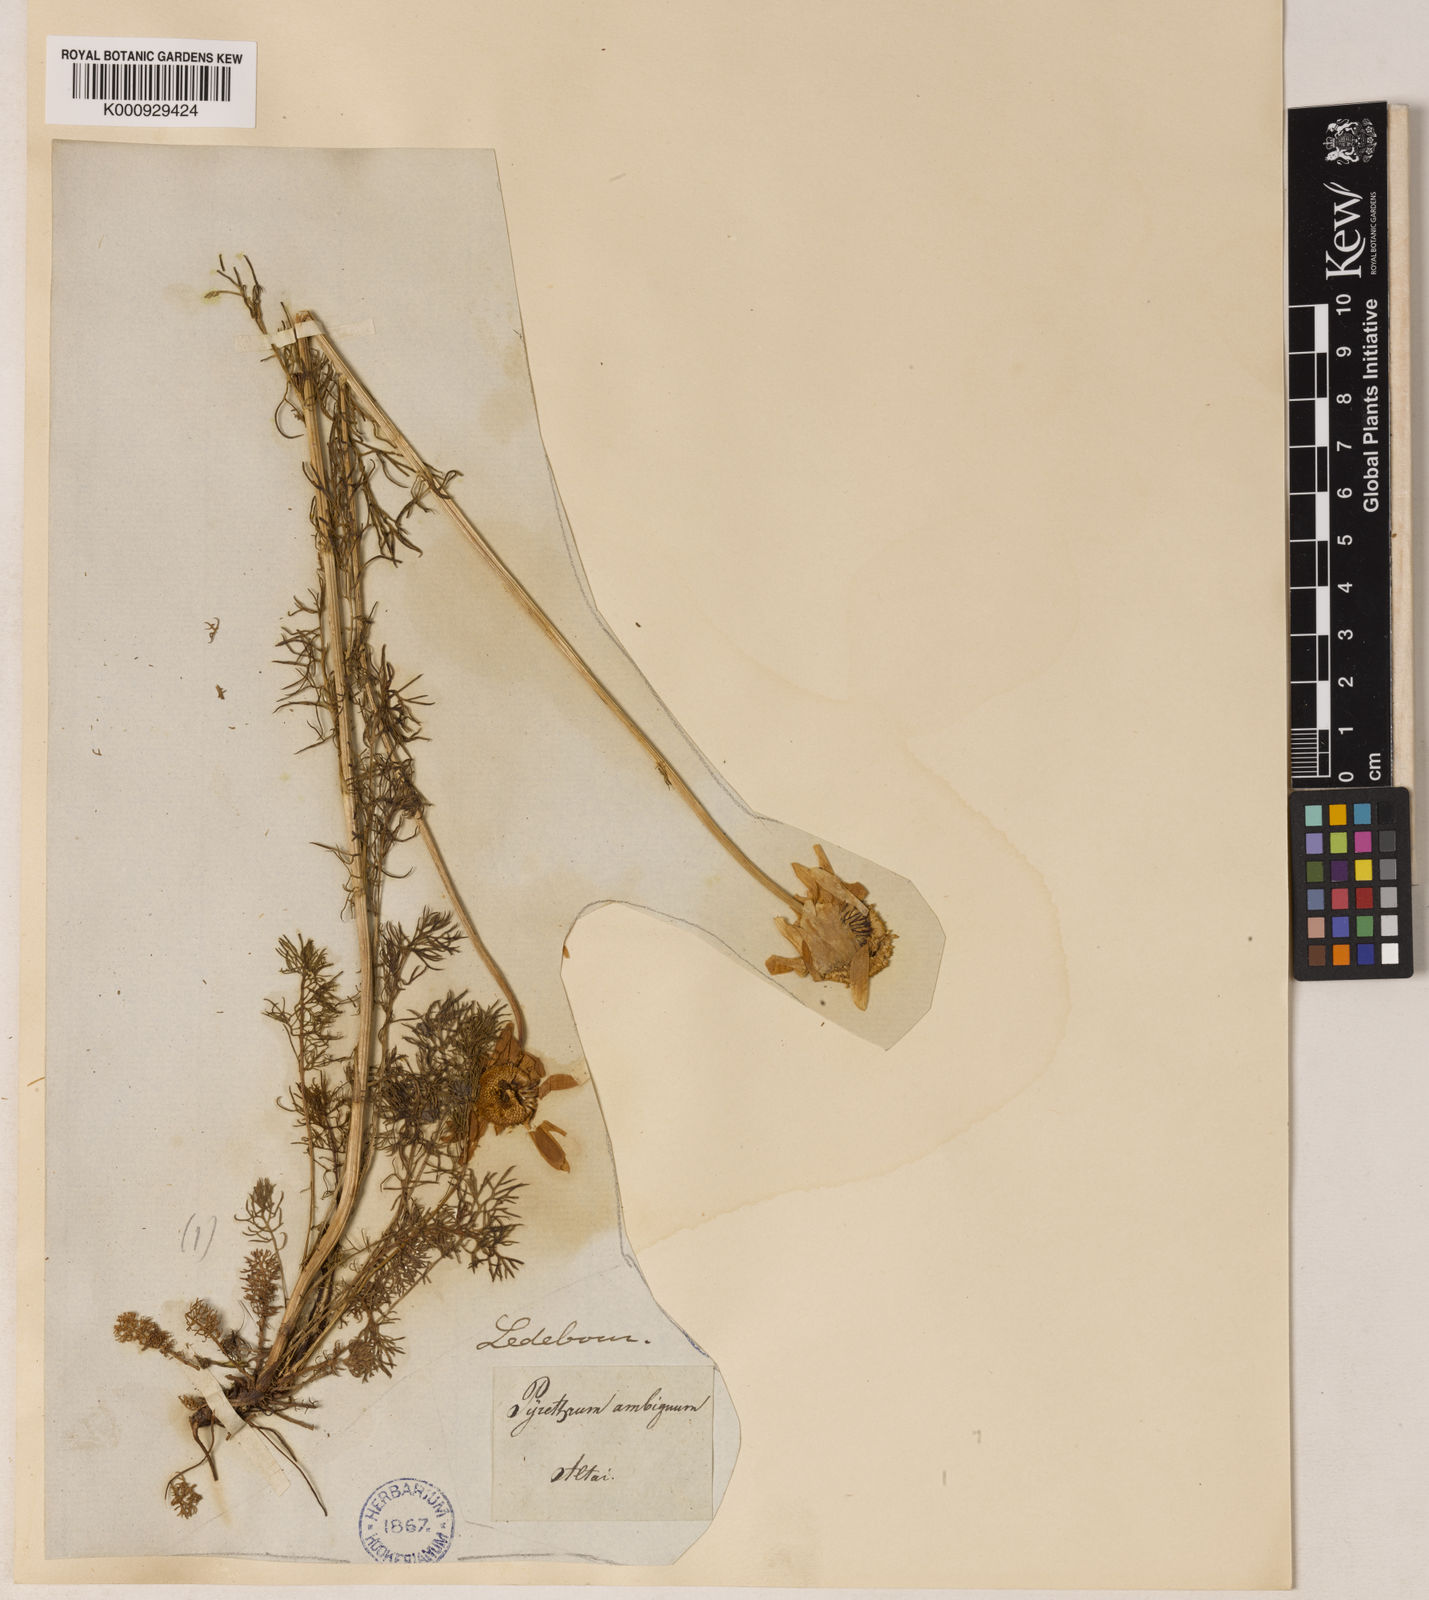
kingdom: Plantae
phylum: Tracheophyta
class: Magnoliopsida
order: Asterales
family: Asteraceae
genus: Tripleurospermum
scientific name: Tripleurospermum maritimum
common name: Sea mayweed
